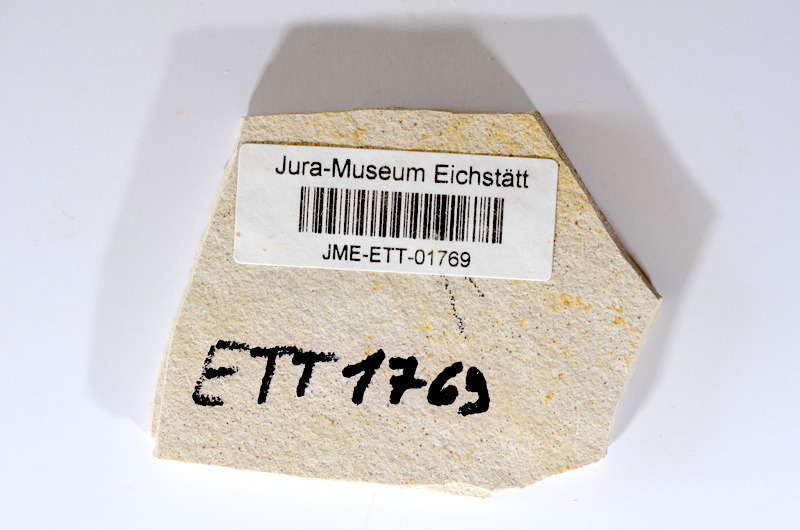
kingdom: Animalia
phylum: Chordata
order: Salmoniformes
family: Orthogonikleithridae
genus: Orthogonikleithrus
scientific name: Orthogonikleithrus hoelli
